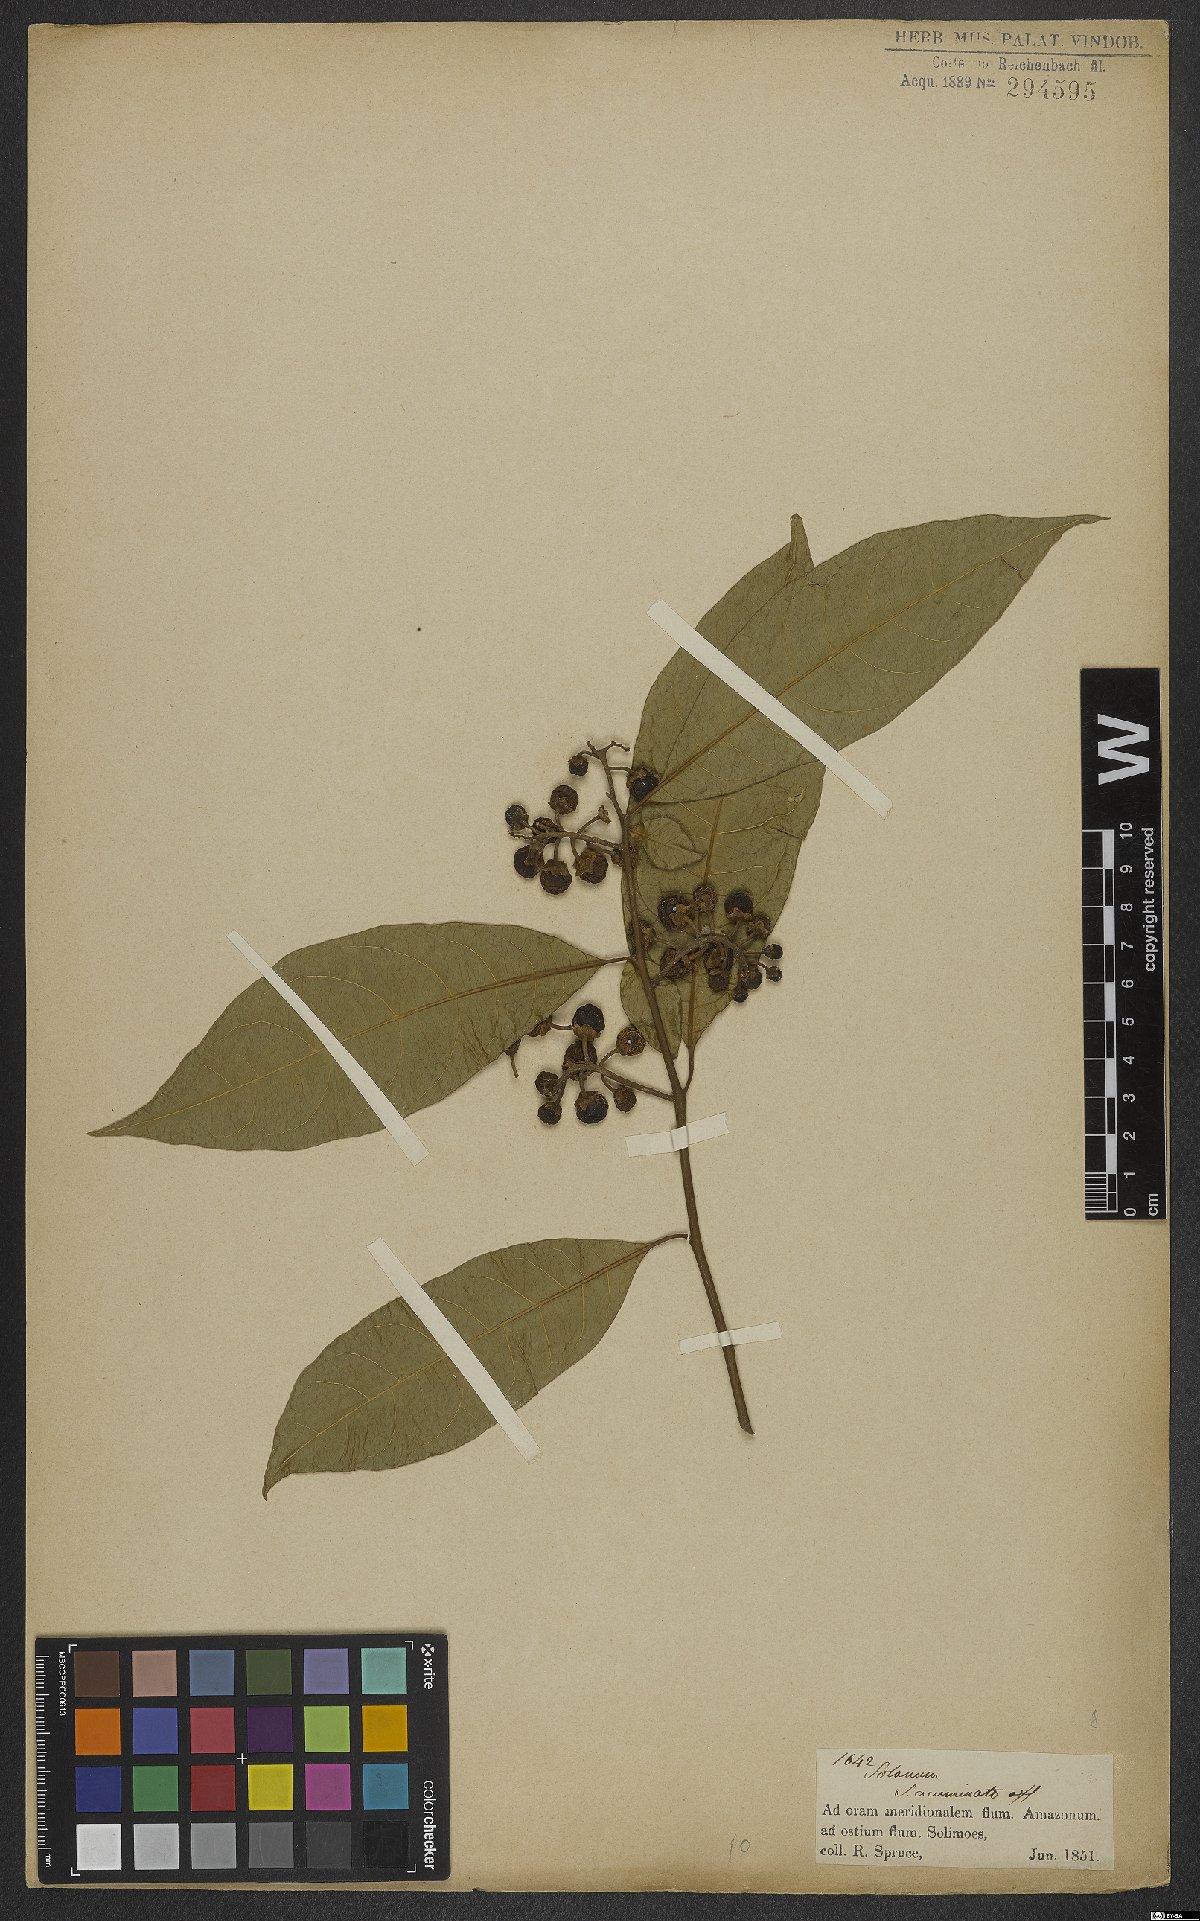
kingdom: Plantae
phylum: Tracheophyta
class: Magnoliopsida
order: Solanales
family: Solanaceae
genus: Solanum
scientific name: Solanum acuminatum
